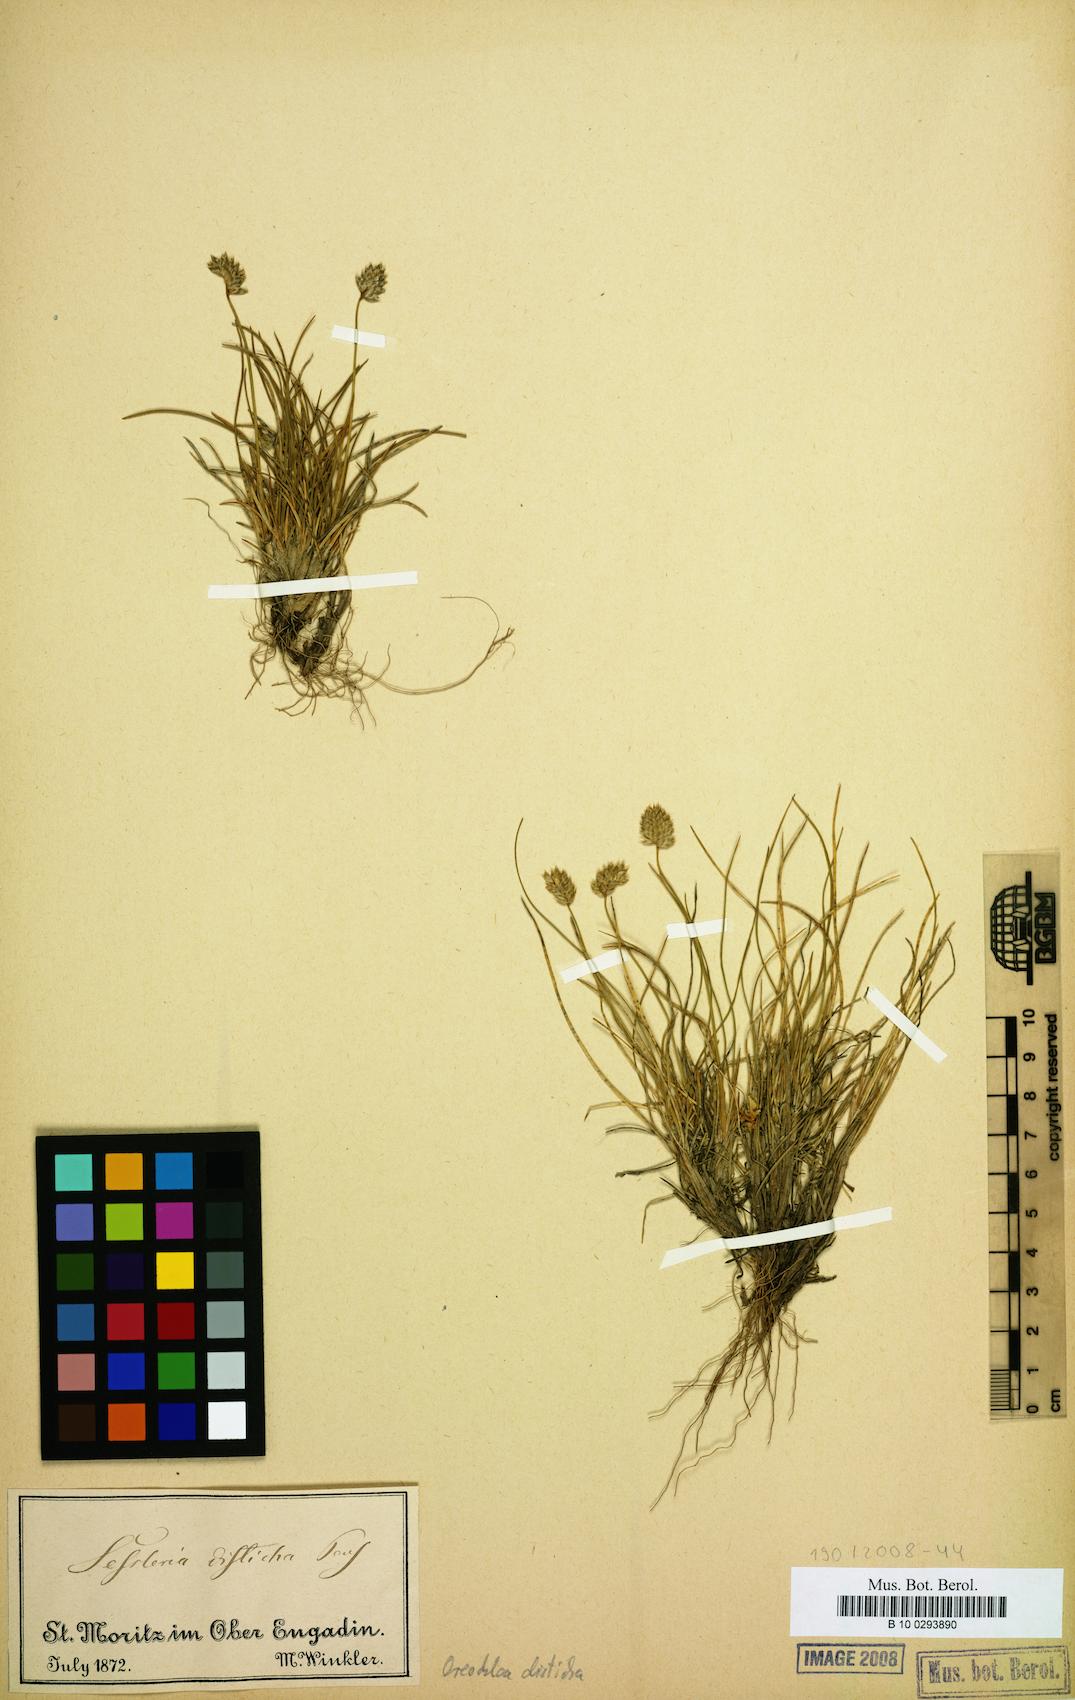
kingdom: Plantae
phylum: Tracheophyta
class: Liliopsida
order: Poales
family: Poaceae
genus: Oreochloa
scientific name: Oreochloa disticha
